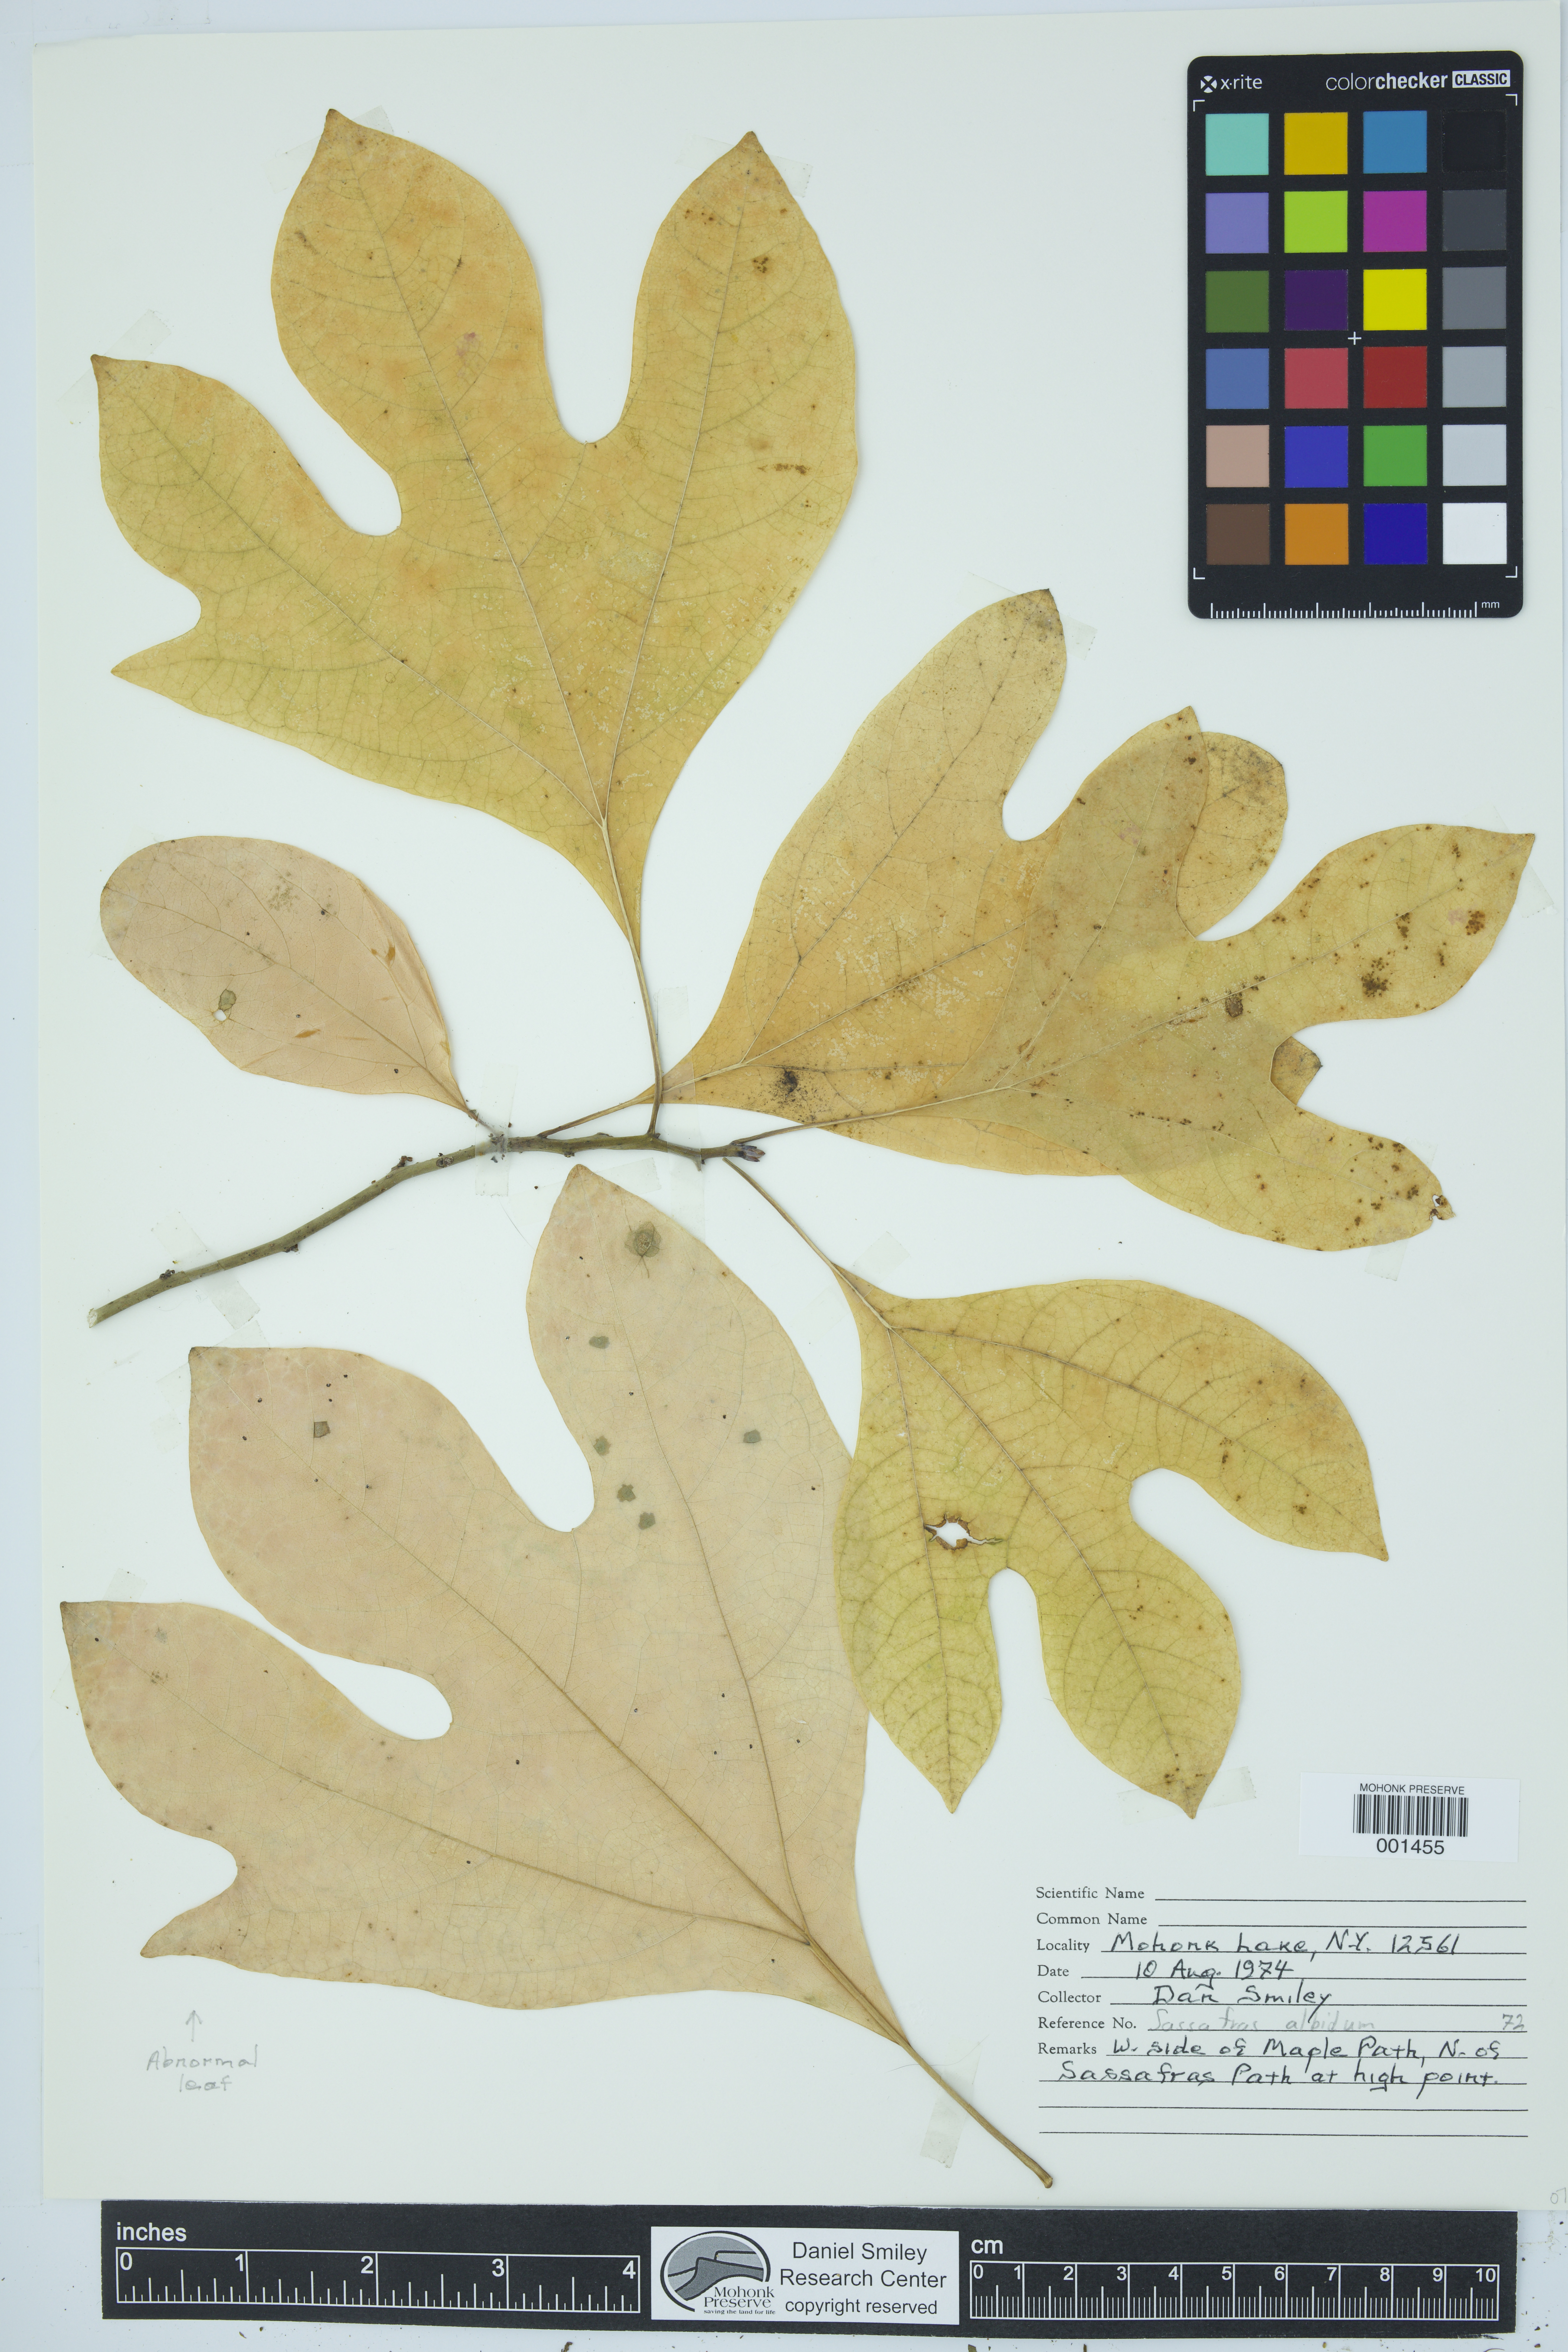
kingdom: Plantae
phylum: Tracheophyta
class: Magnoliopsida
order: Laurales
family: Lauraceae
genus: Sassafras
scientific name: Sassafras albidum
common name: Sassafras
